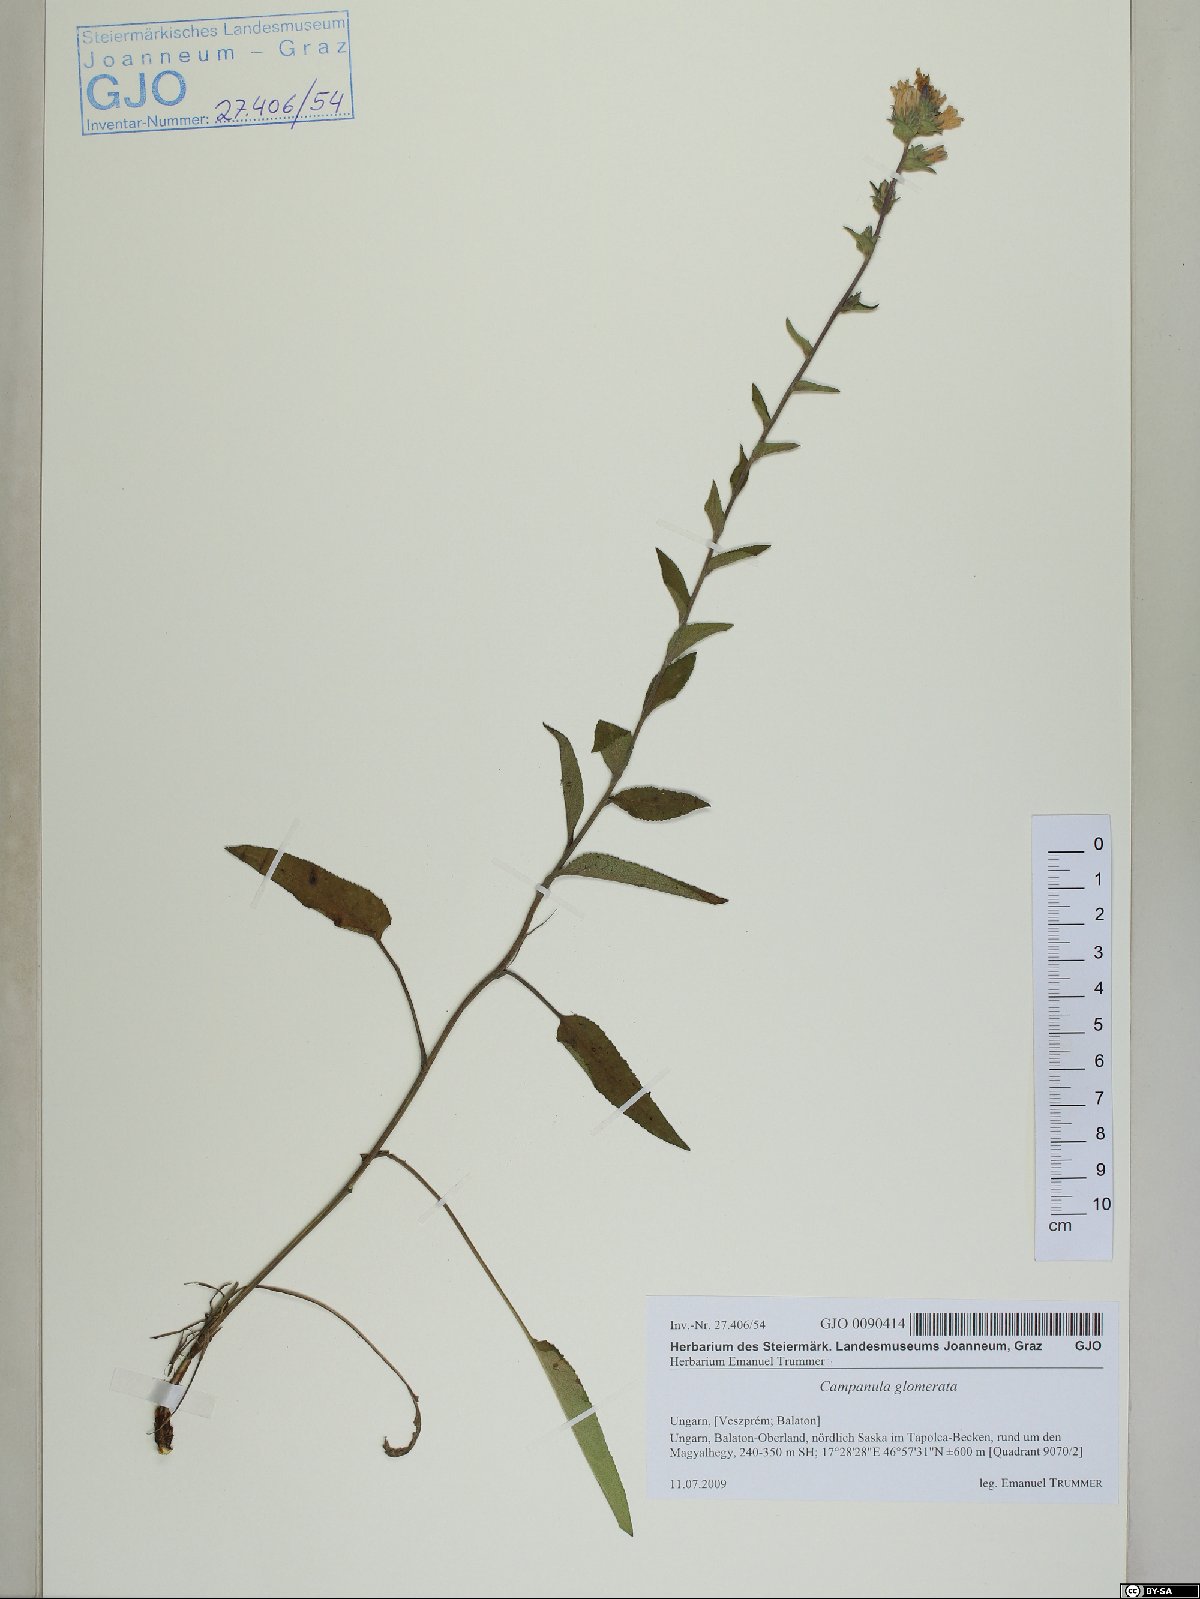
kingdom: Plantae
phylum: Tracheophyta
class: Magnoliopsida
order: Asterales
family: Campanulaceae
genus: Campanula
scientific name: Campanula glomerata
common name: Clustered bellflower
